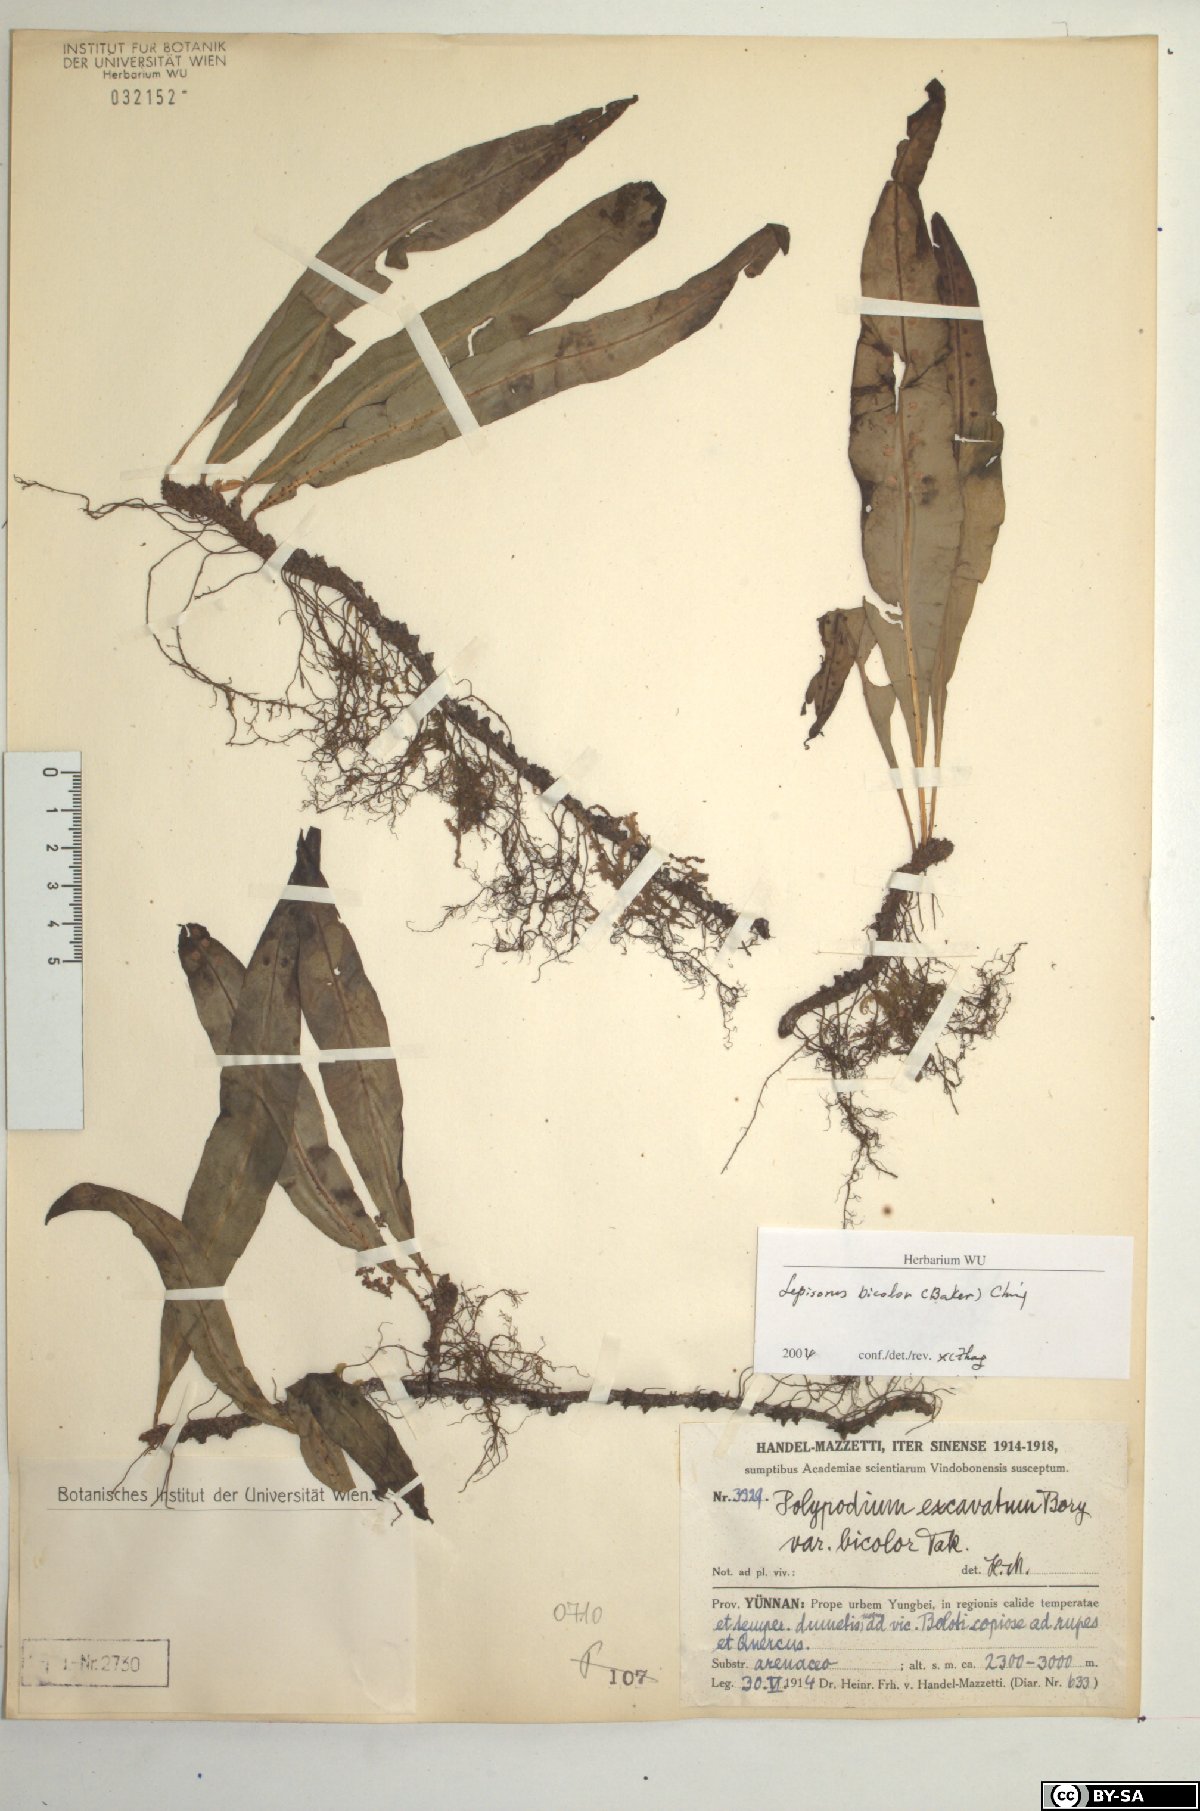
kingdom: Plantae
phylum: Tracheophyta
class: Polypodiopsida
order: Polypodiales
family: Polypodiaceae
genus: Lepisorus
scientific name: Lepisorus bicolor
